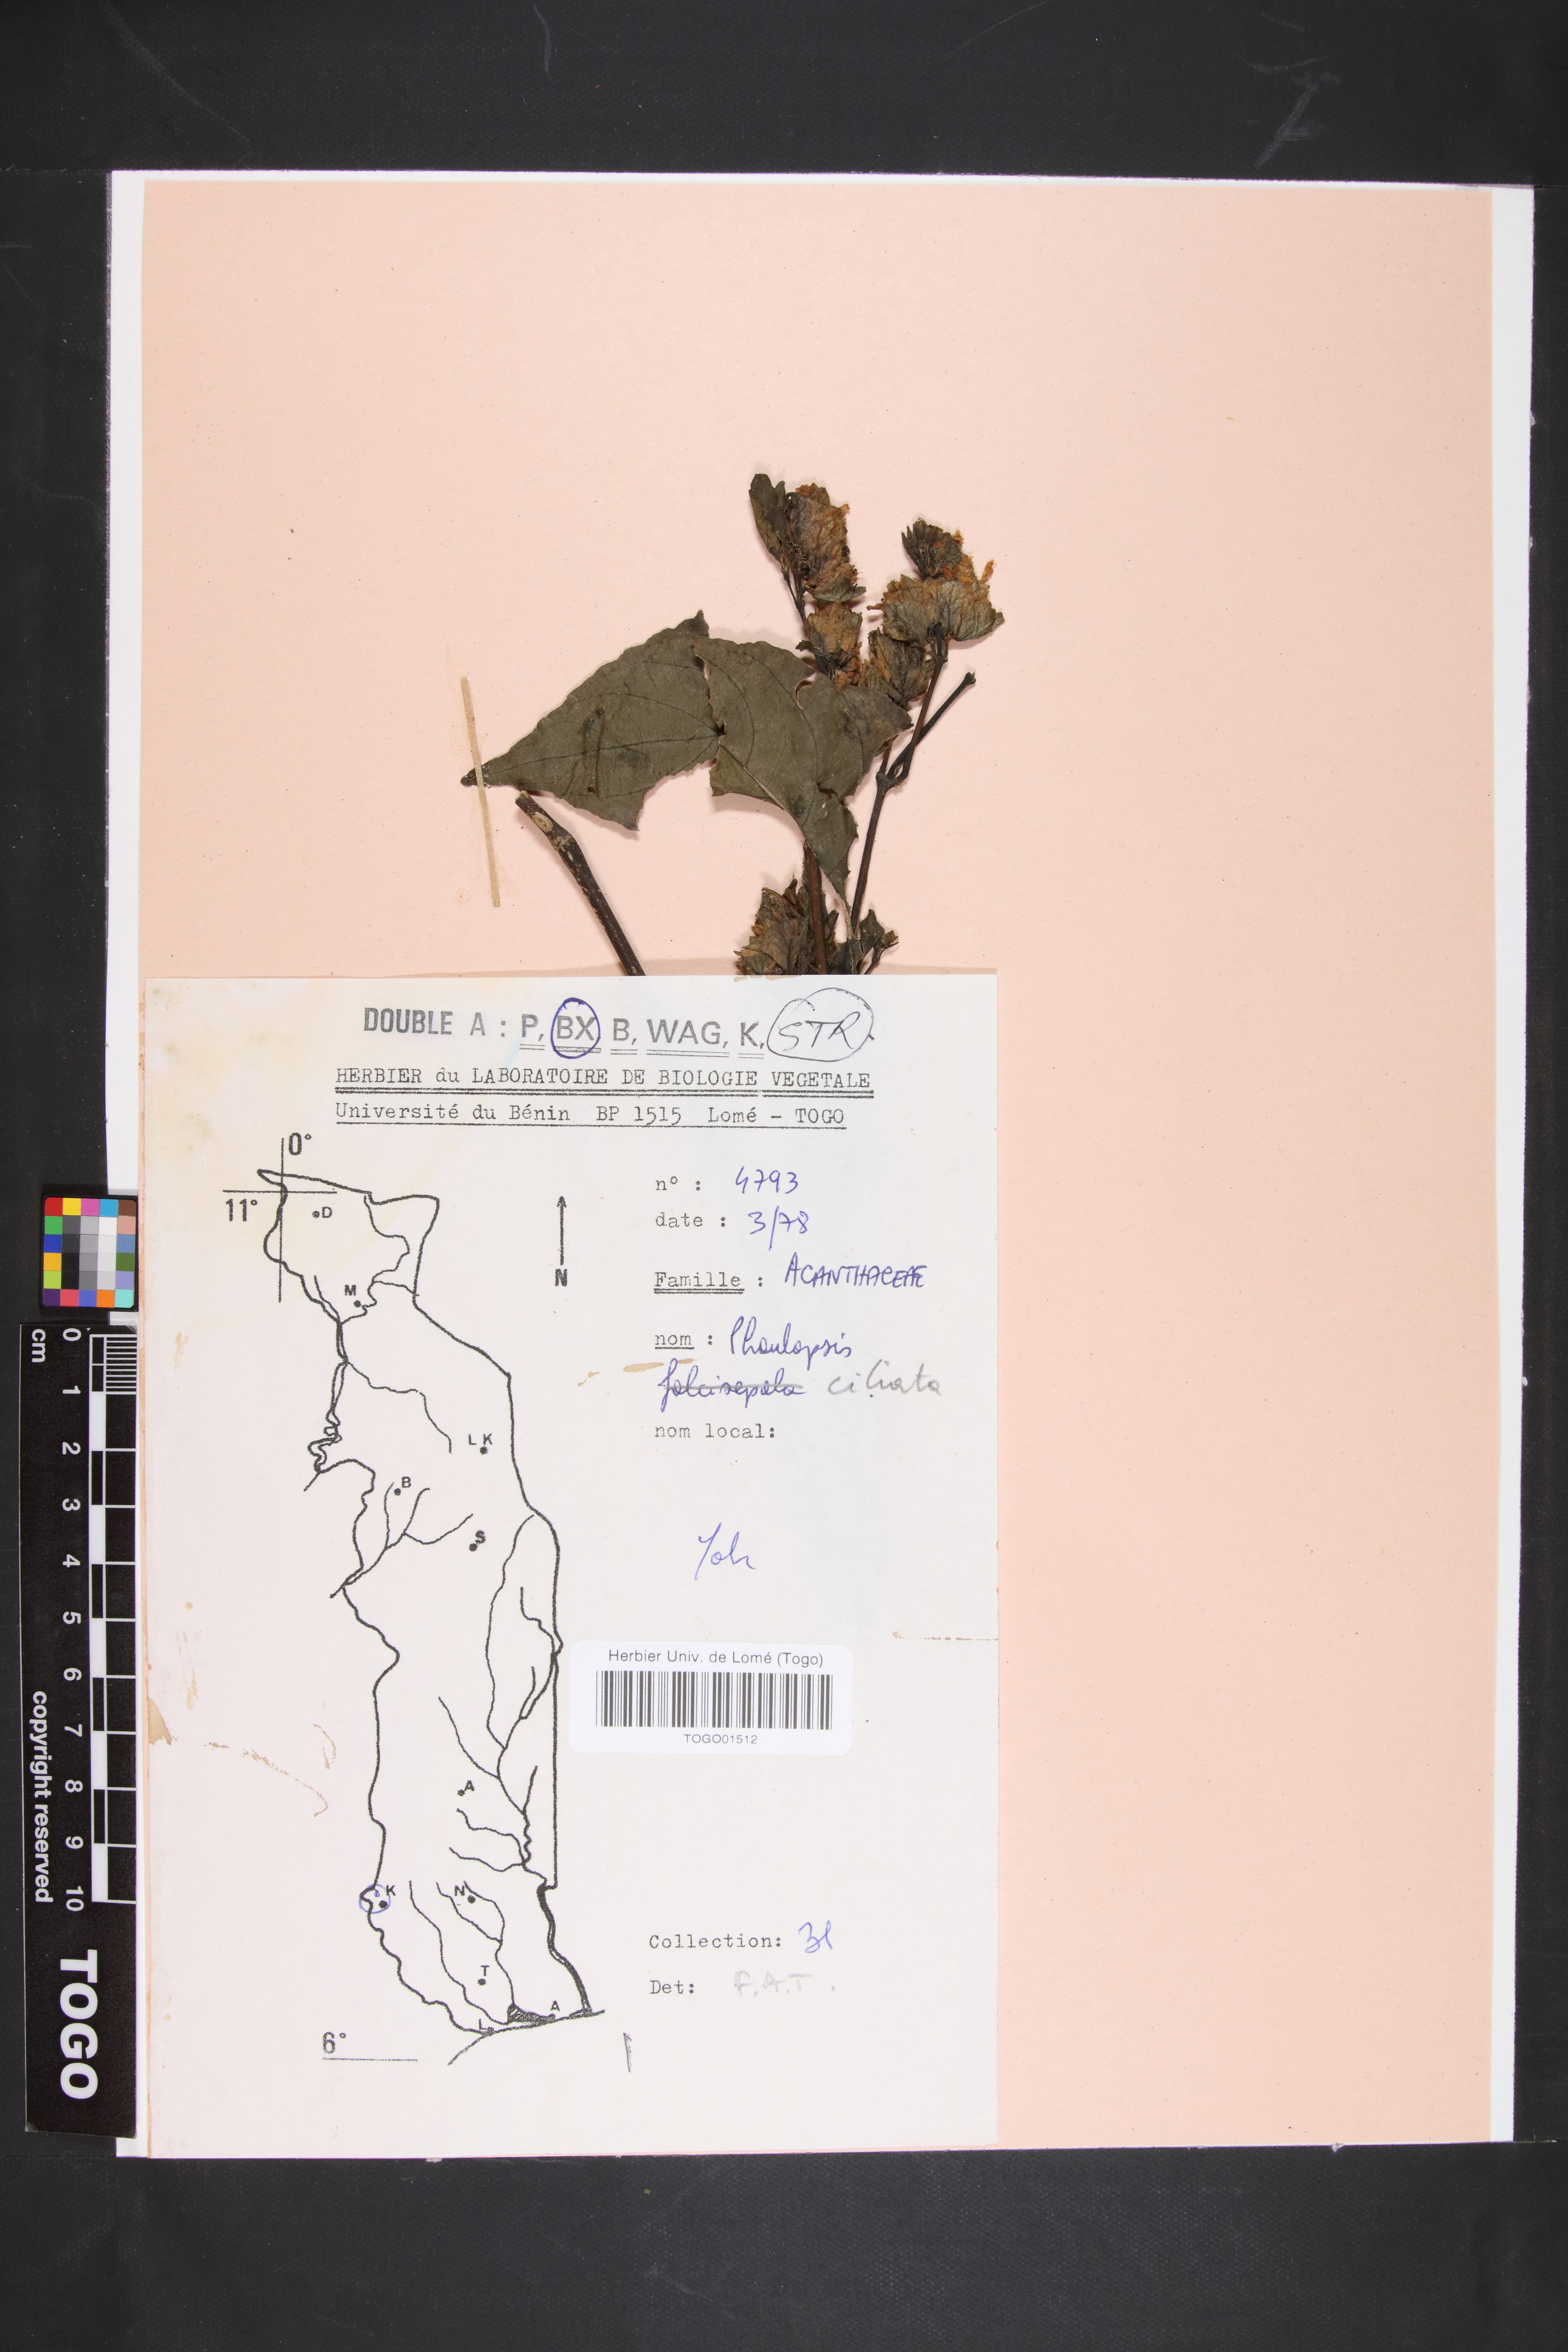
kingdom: Plantae
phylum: Tracheophyta
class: Magnoliopsida
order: Lamiales
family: Acanthaceae
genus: Phaulopsis
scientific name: Phaulopsis ciliata
